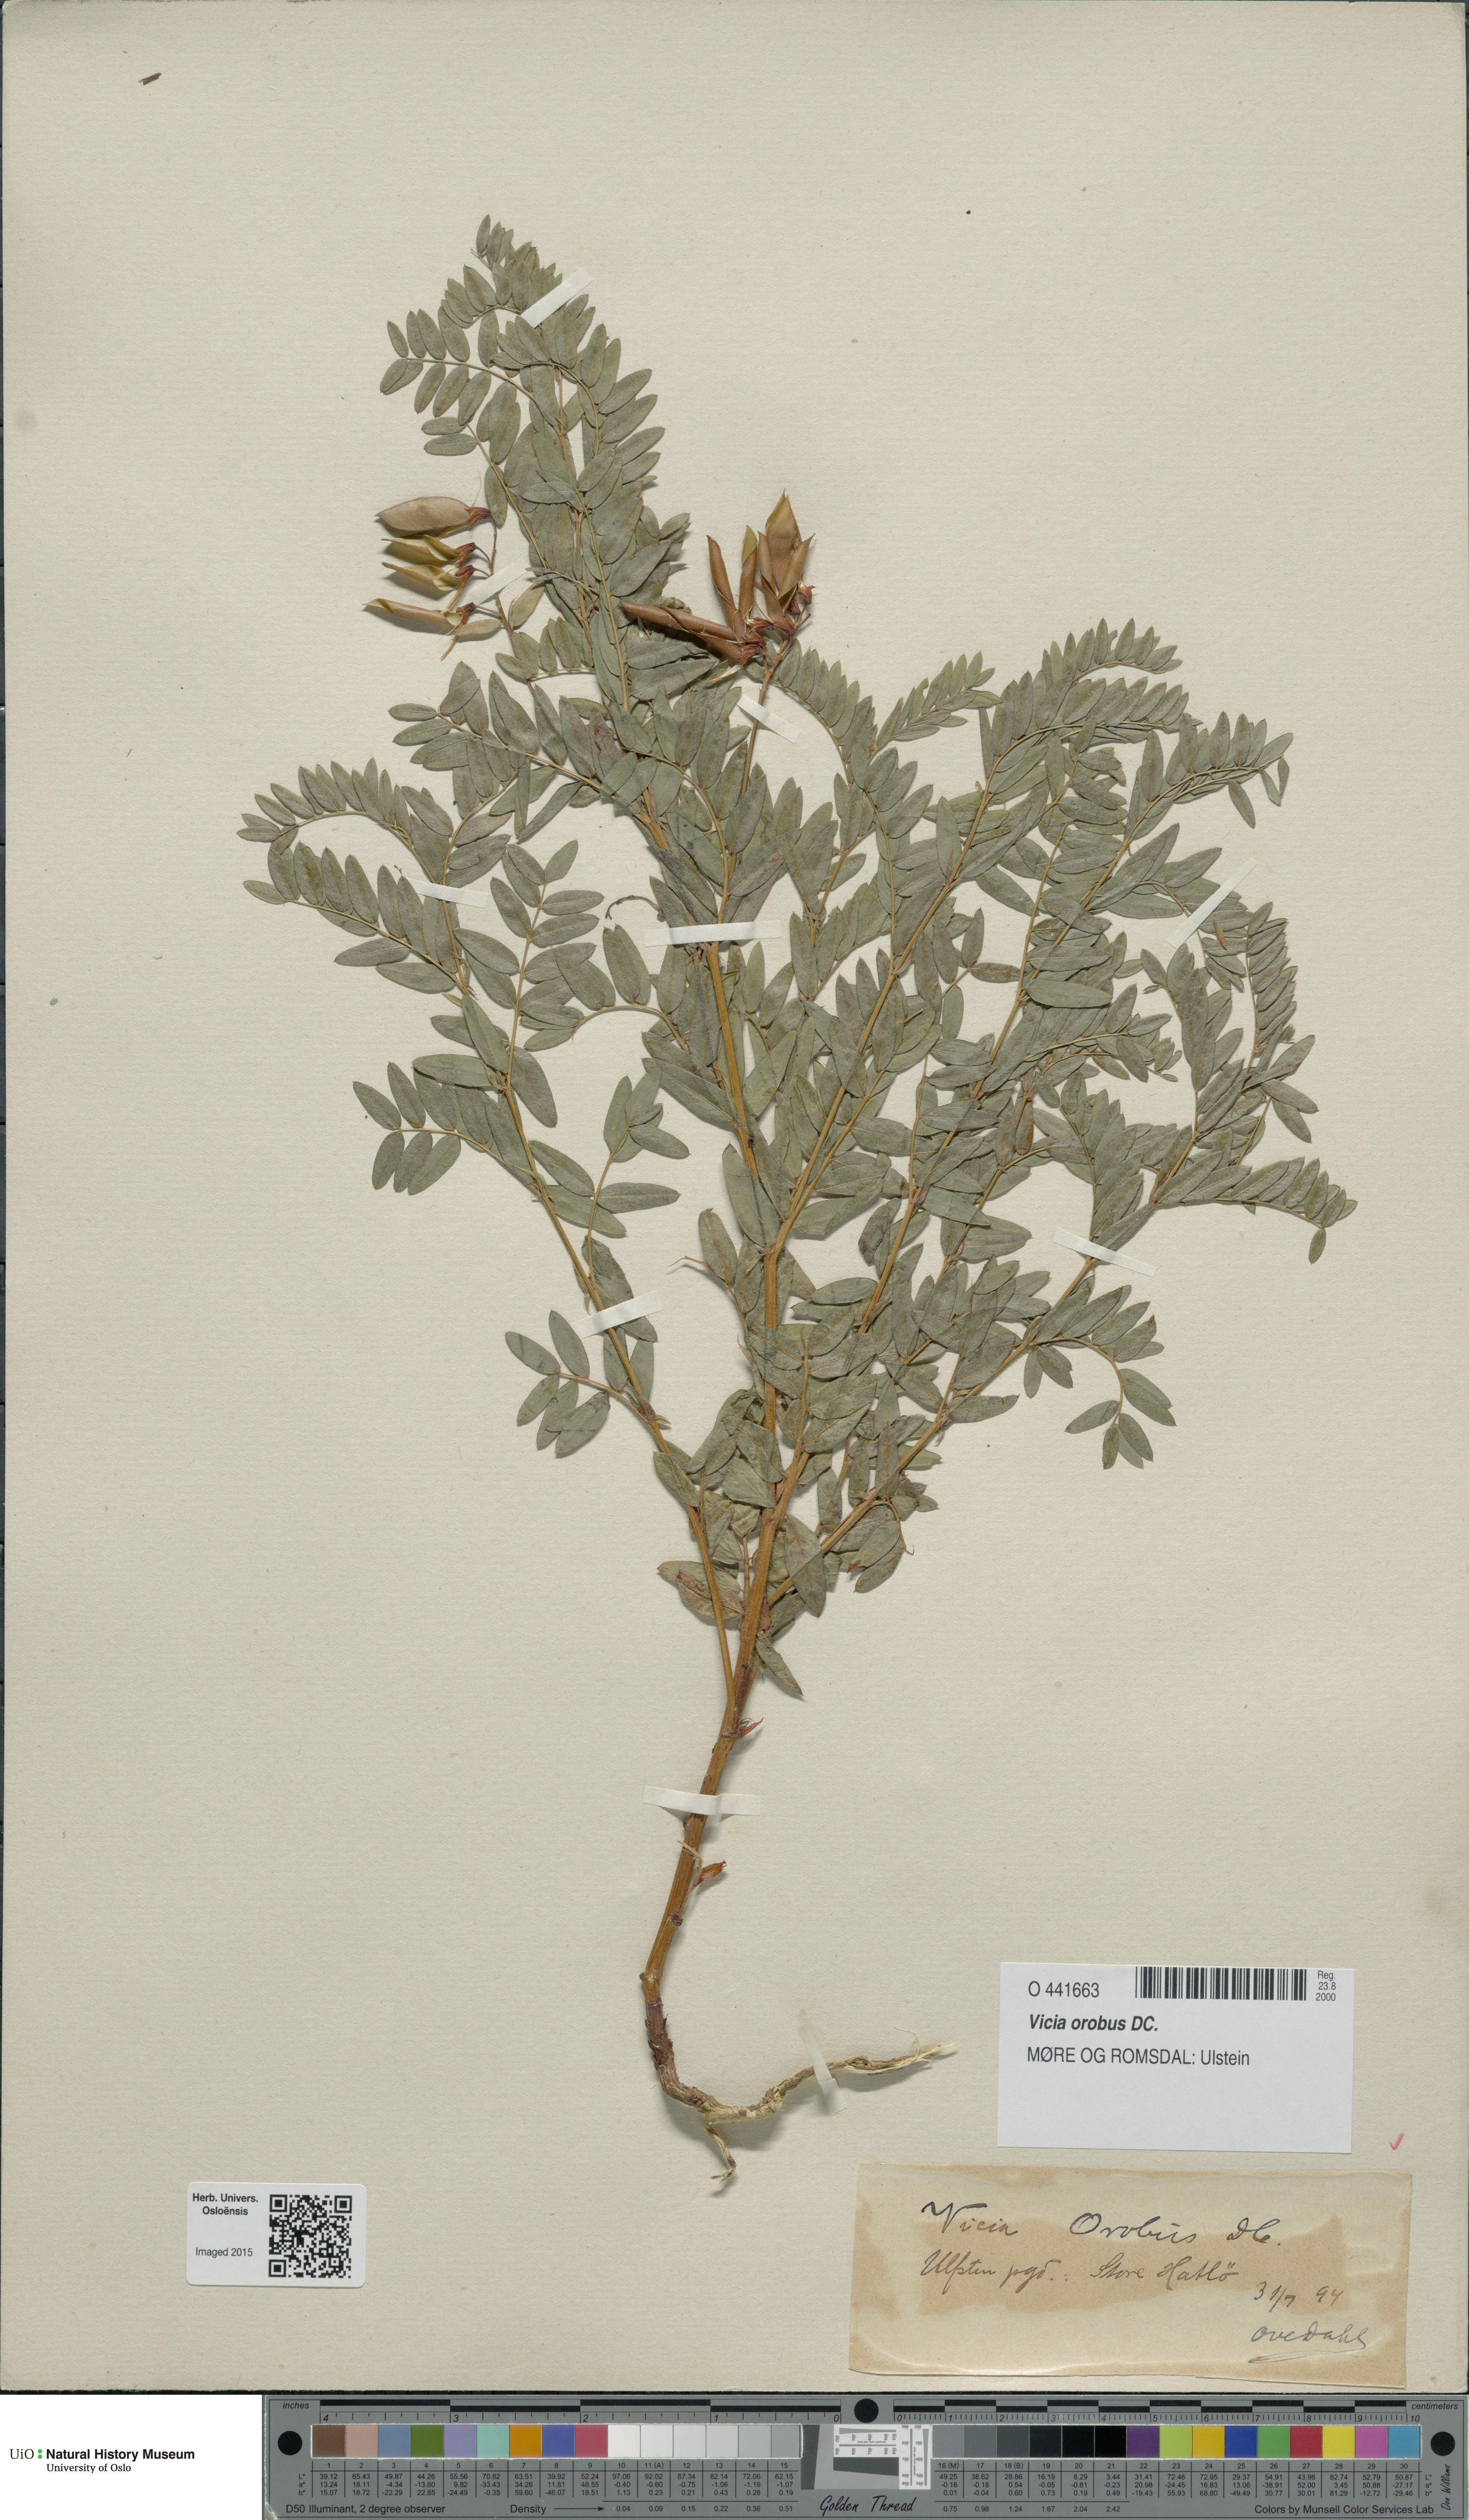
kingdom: Plantae
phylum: Tracheophyta
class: Magnoliopsida
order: Fabales
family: Fabaceae
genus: Vicia
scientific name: Vicia orobus
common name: Wood bitter-vetch
